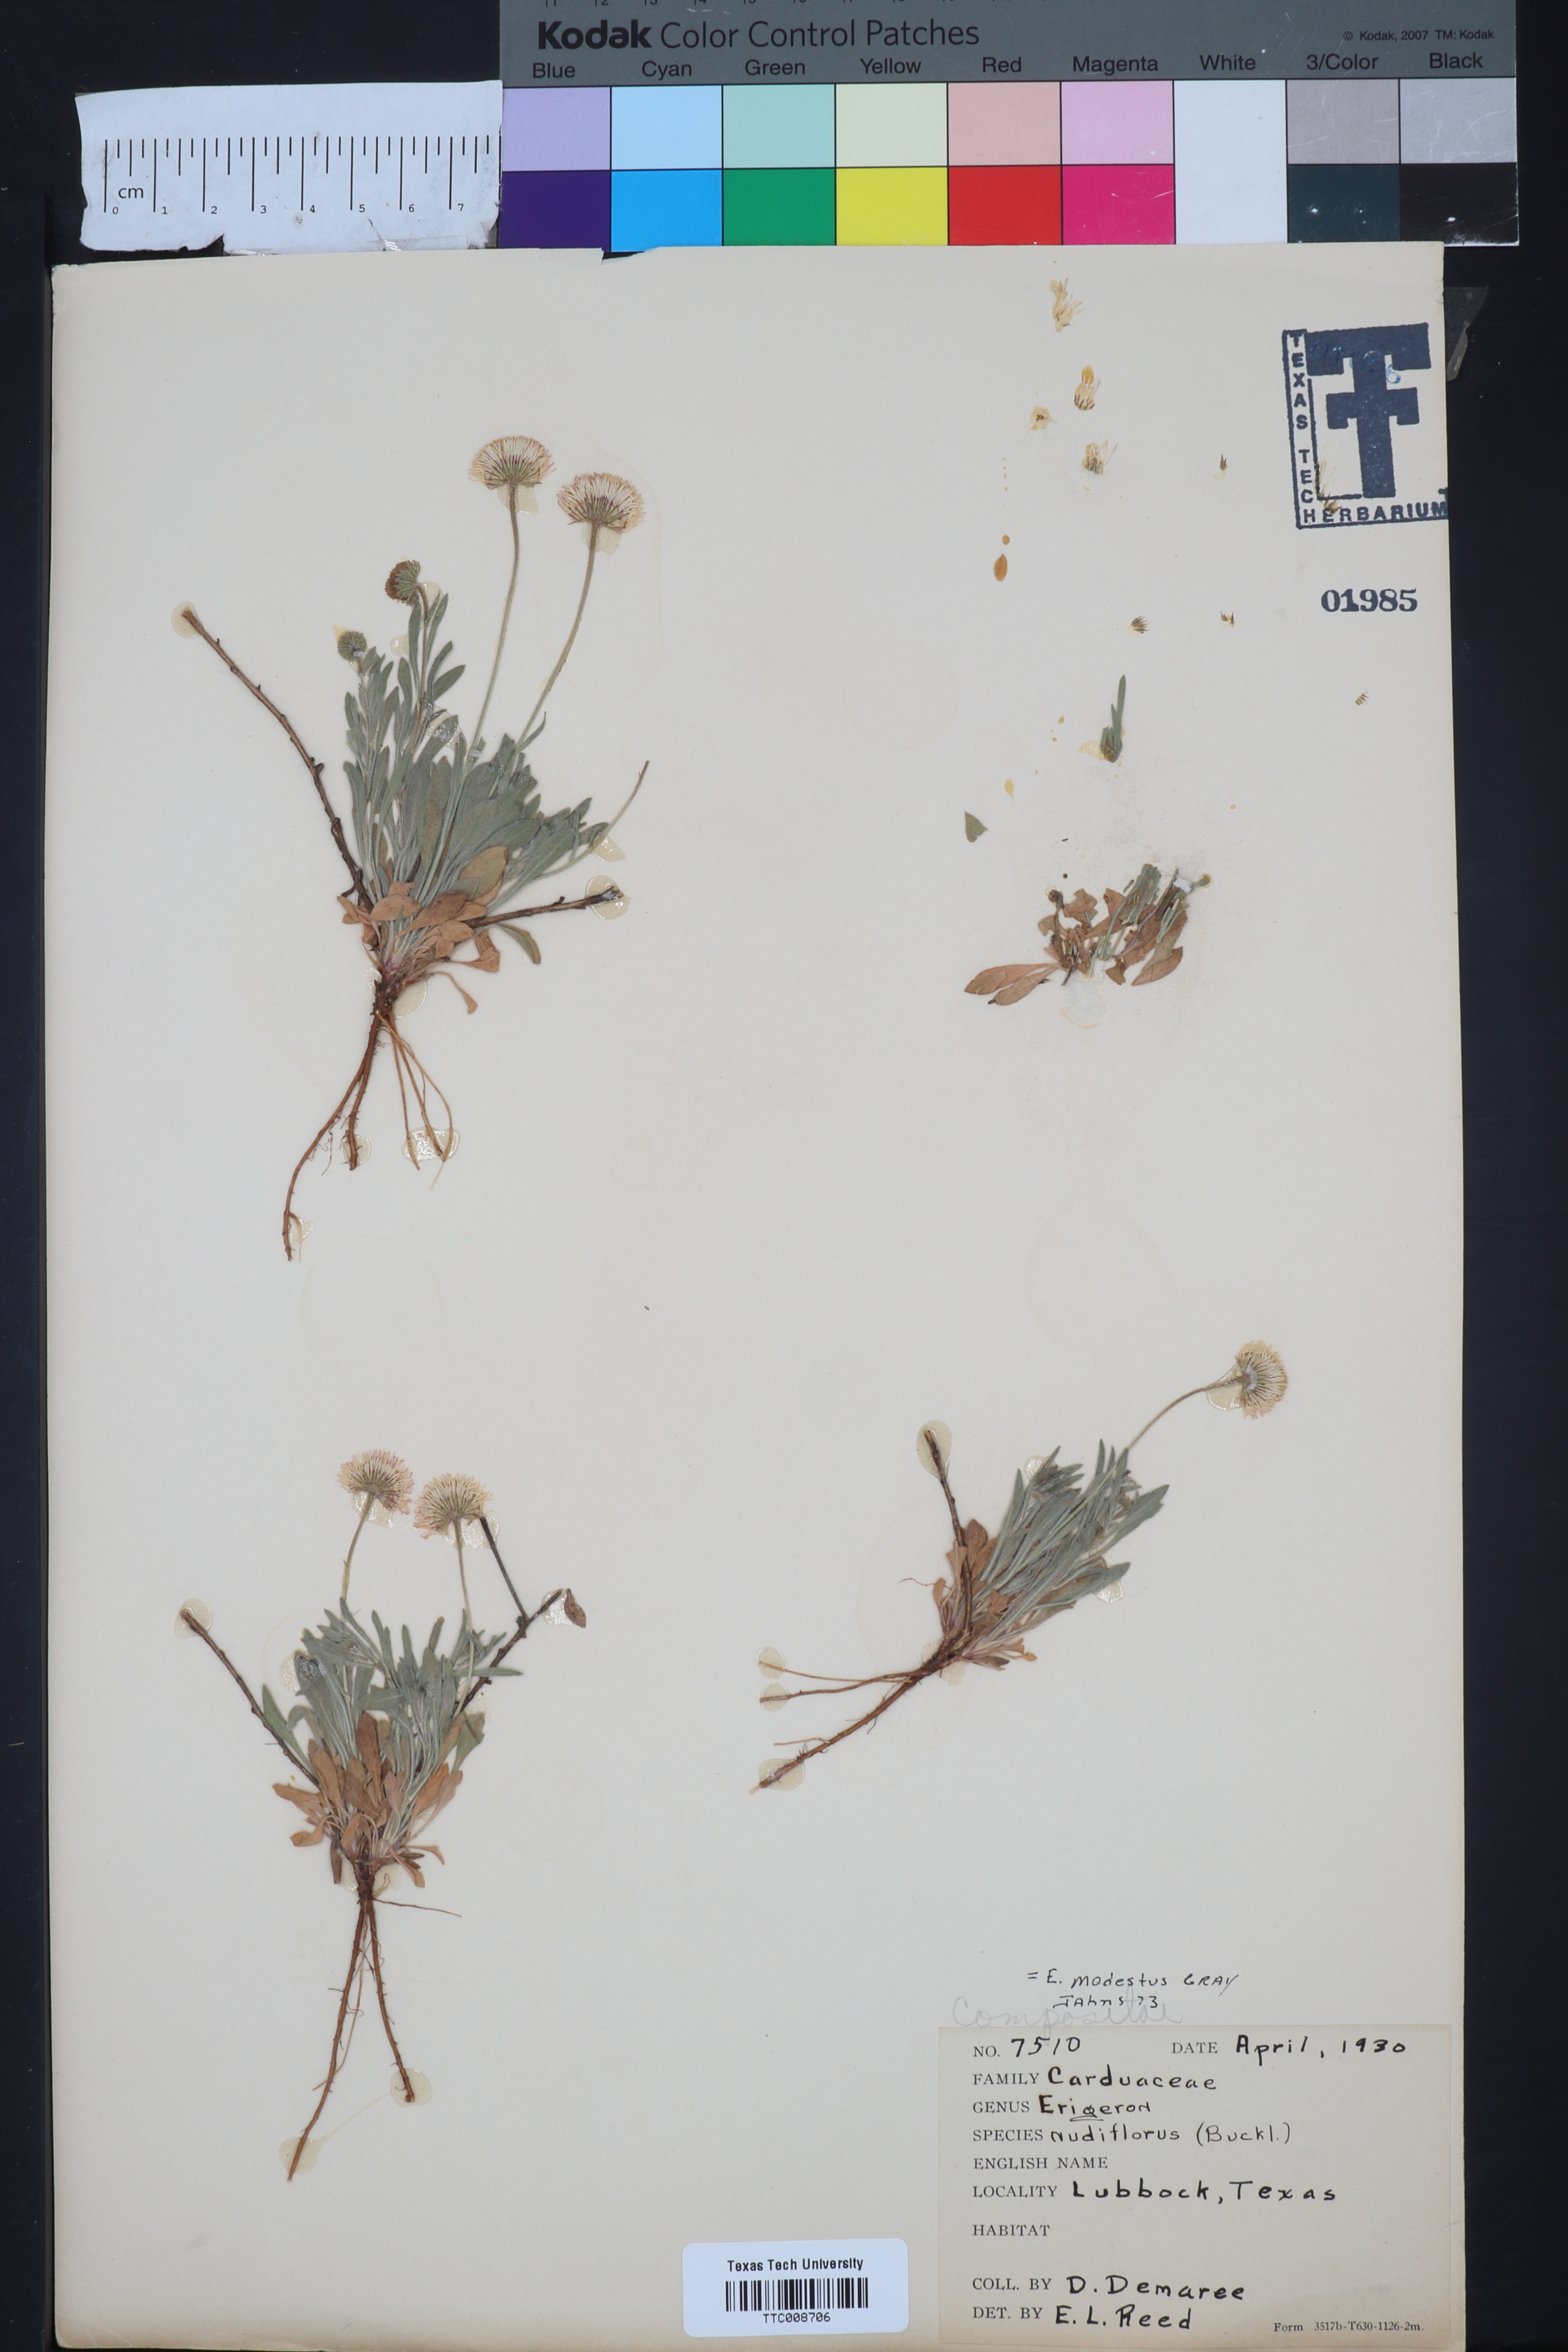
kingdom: Plantae
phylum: Tracheophyta
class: Magnoliopsida
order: Asterales
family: Asteraceae
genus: Erigeron
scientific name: Erigeron modestus
